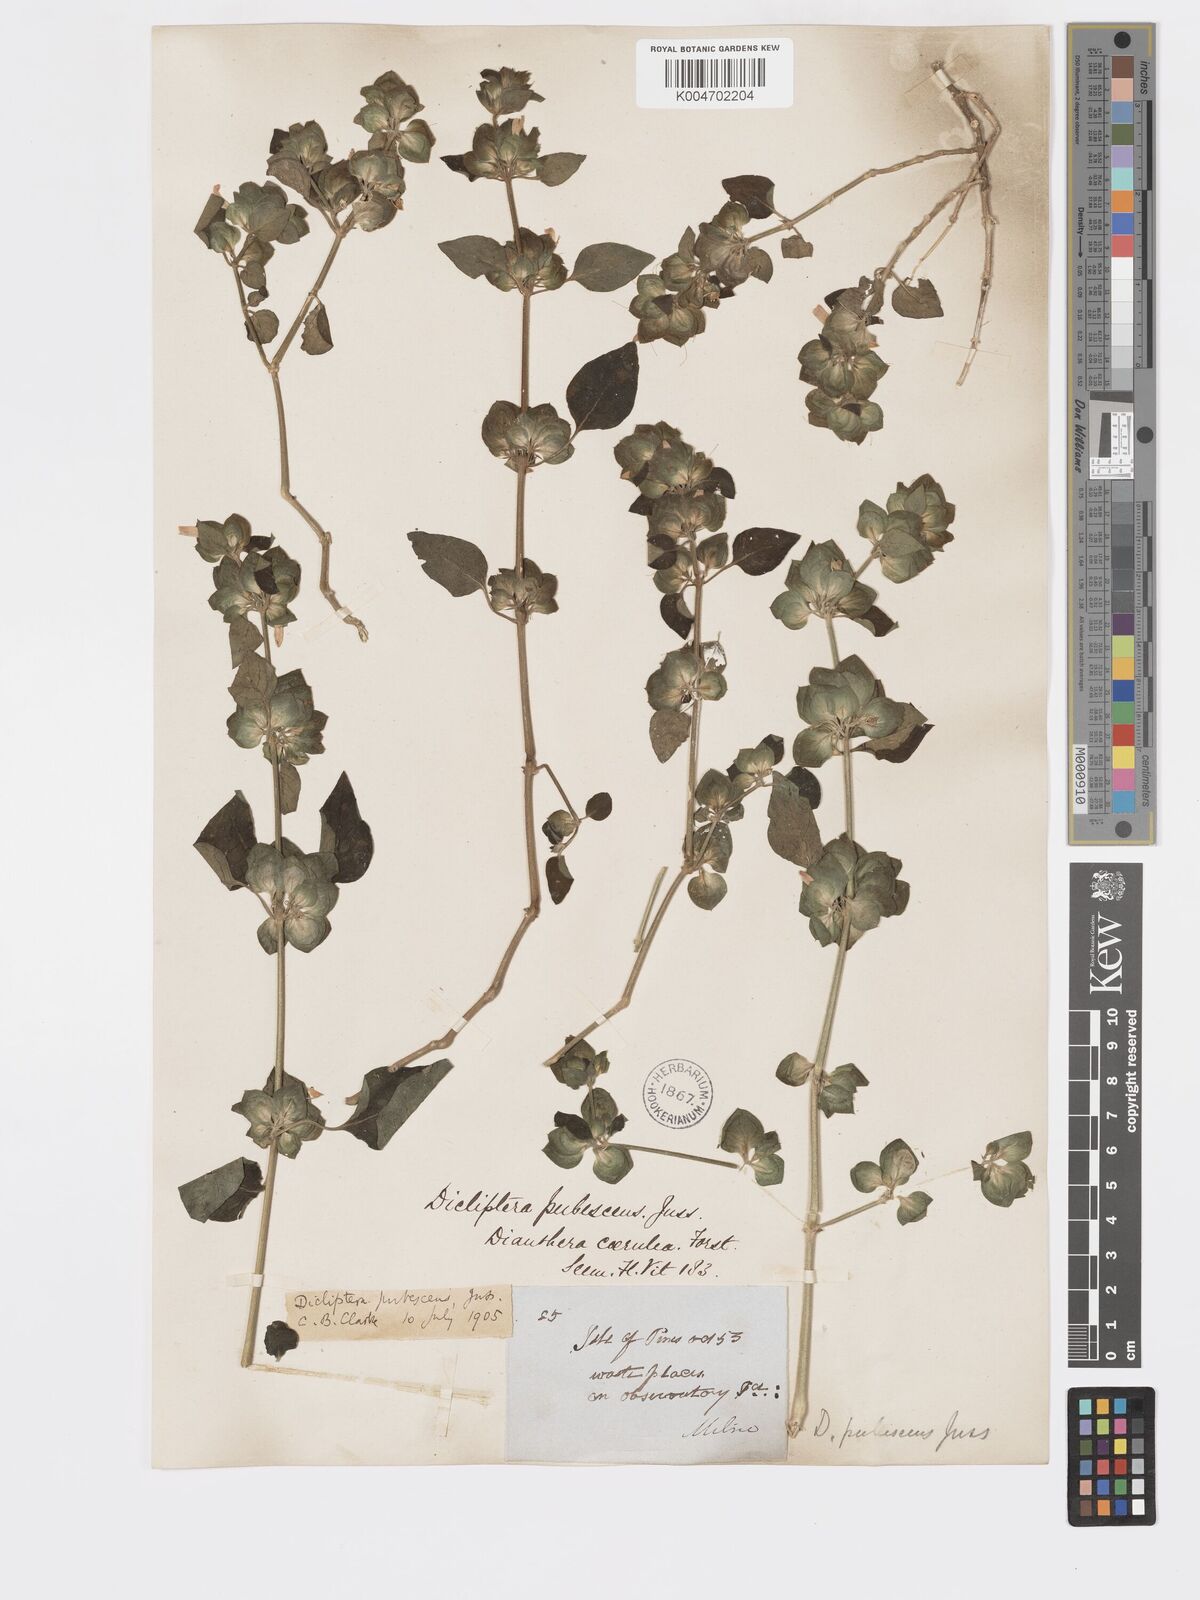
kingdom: Plantae
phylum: Tracheophyta
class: Magnoliopsida
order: Lamiales
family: Acanthaceae
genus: Rungia
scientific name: Rungia parviflora
